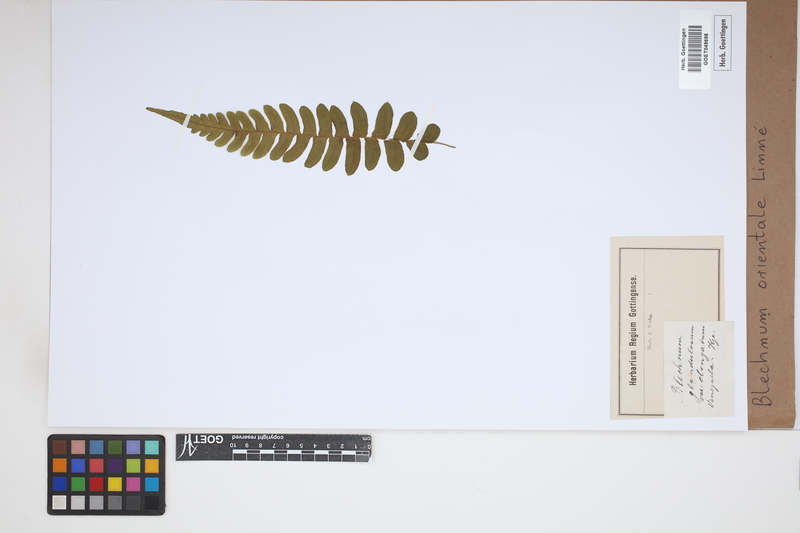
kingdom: Plantae
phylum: Tracheophyta
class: Polypodiopsida
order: Polypodiales
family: Blechnaceae
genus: Blechnopsis
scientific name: Blechnopsis orientalis
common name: Oriental blechnum
